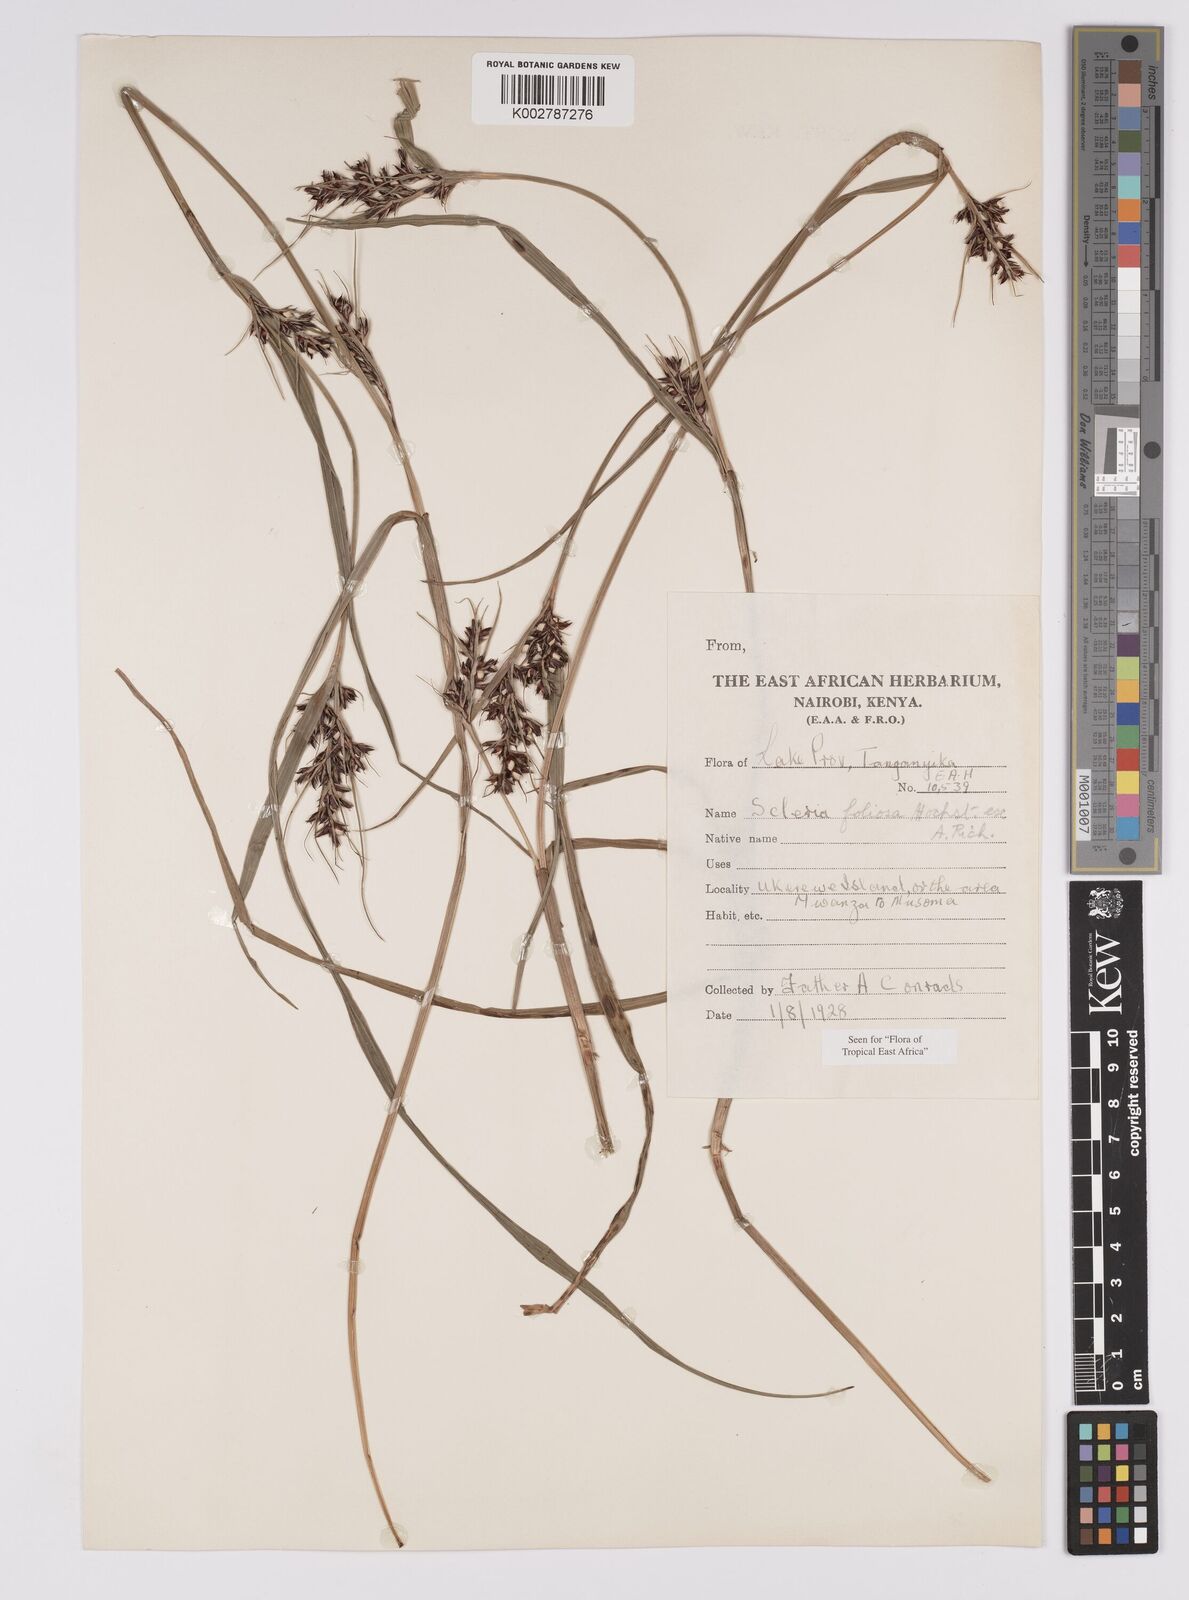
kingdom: Plantae
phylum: Tracheophyta
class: Liliopsida
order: Poales
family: Cyperaceae
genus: Scleria
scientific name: Scleria foliosa
